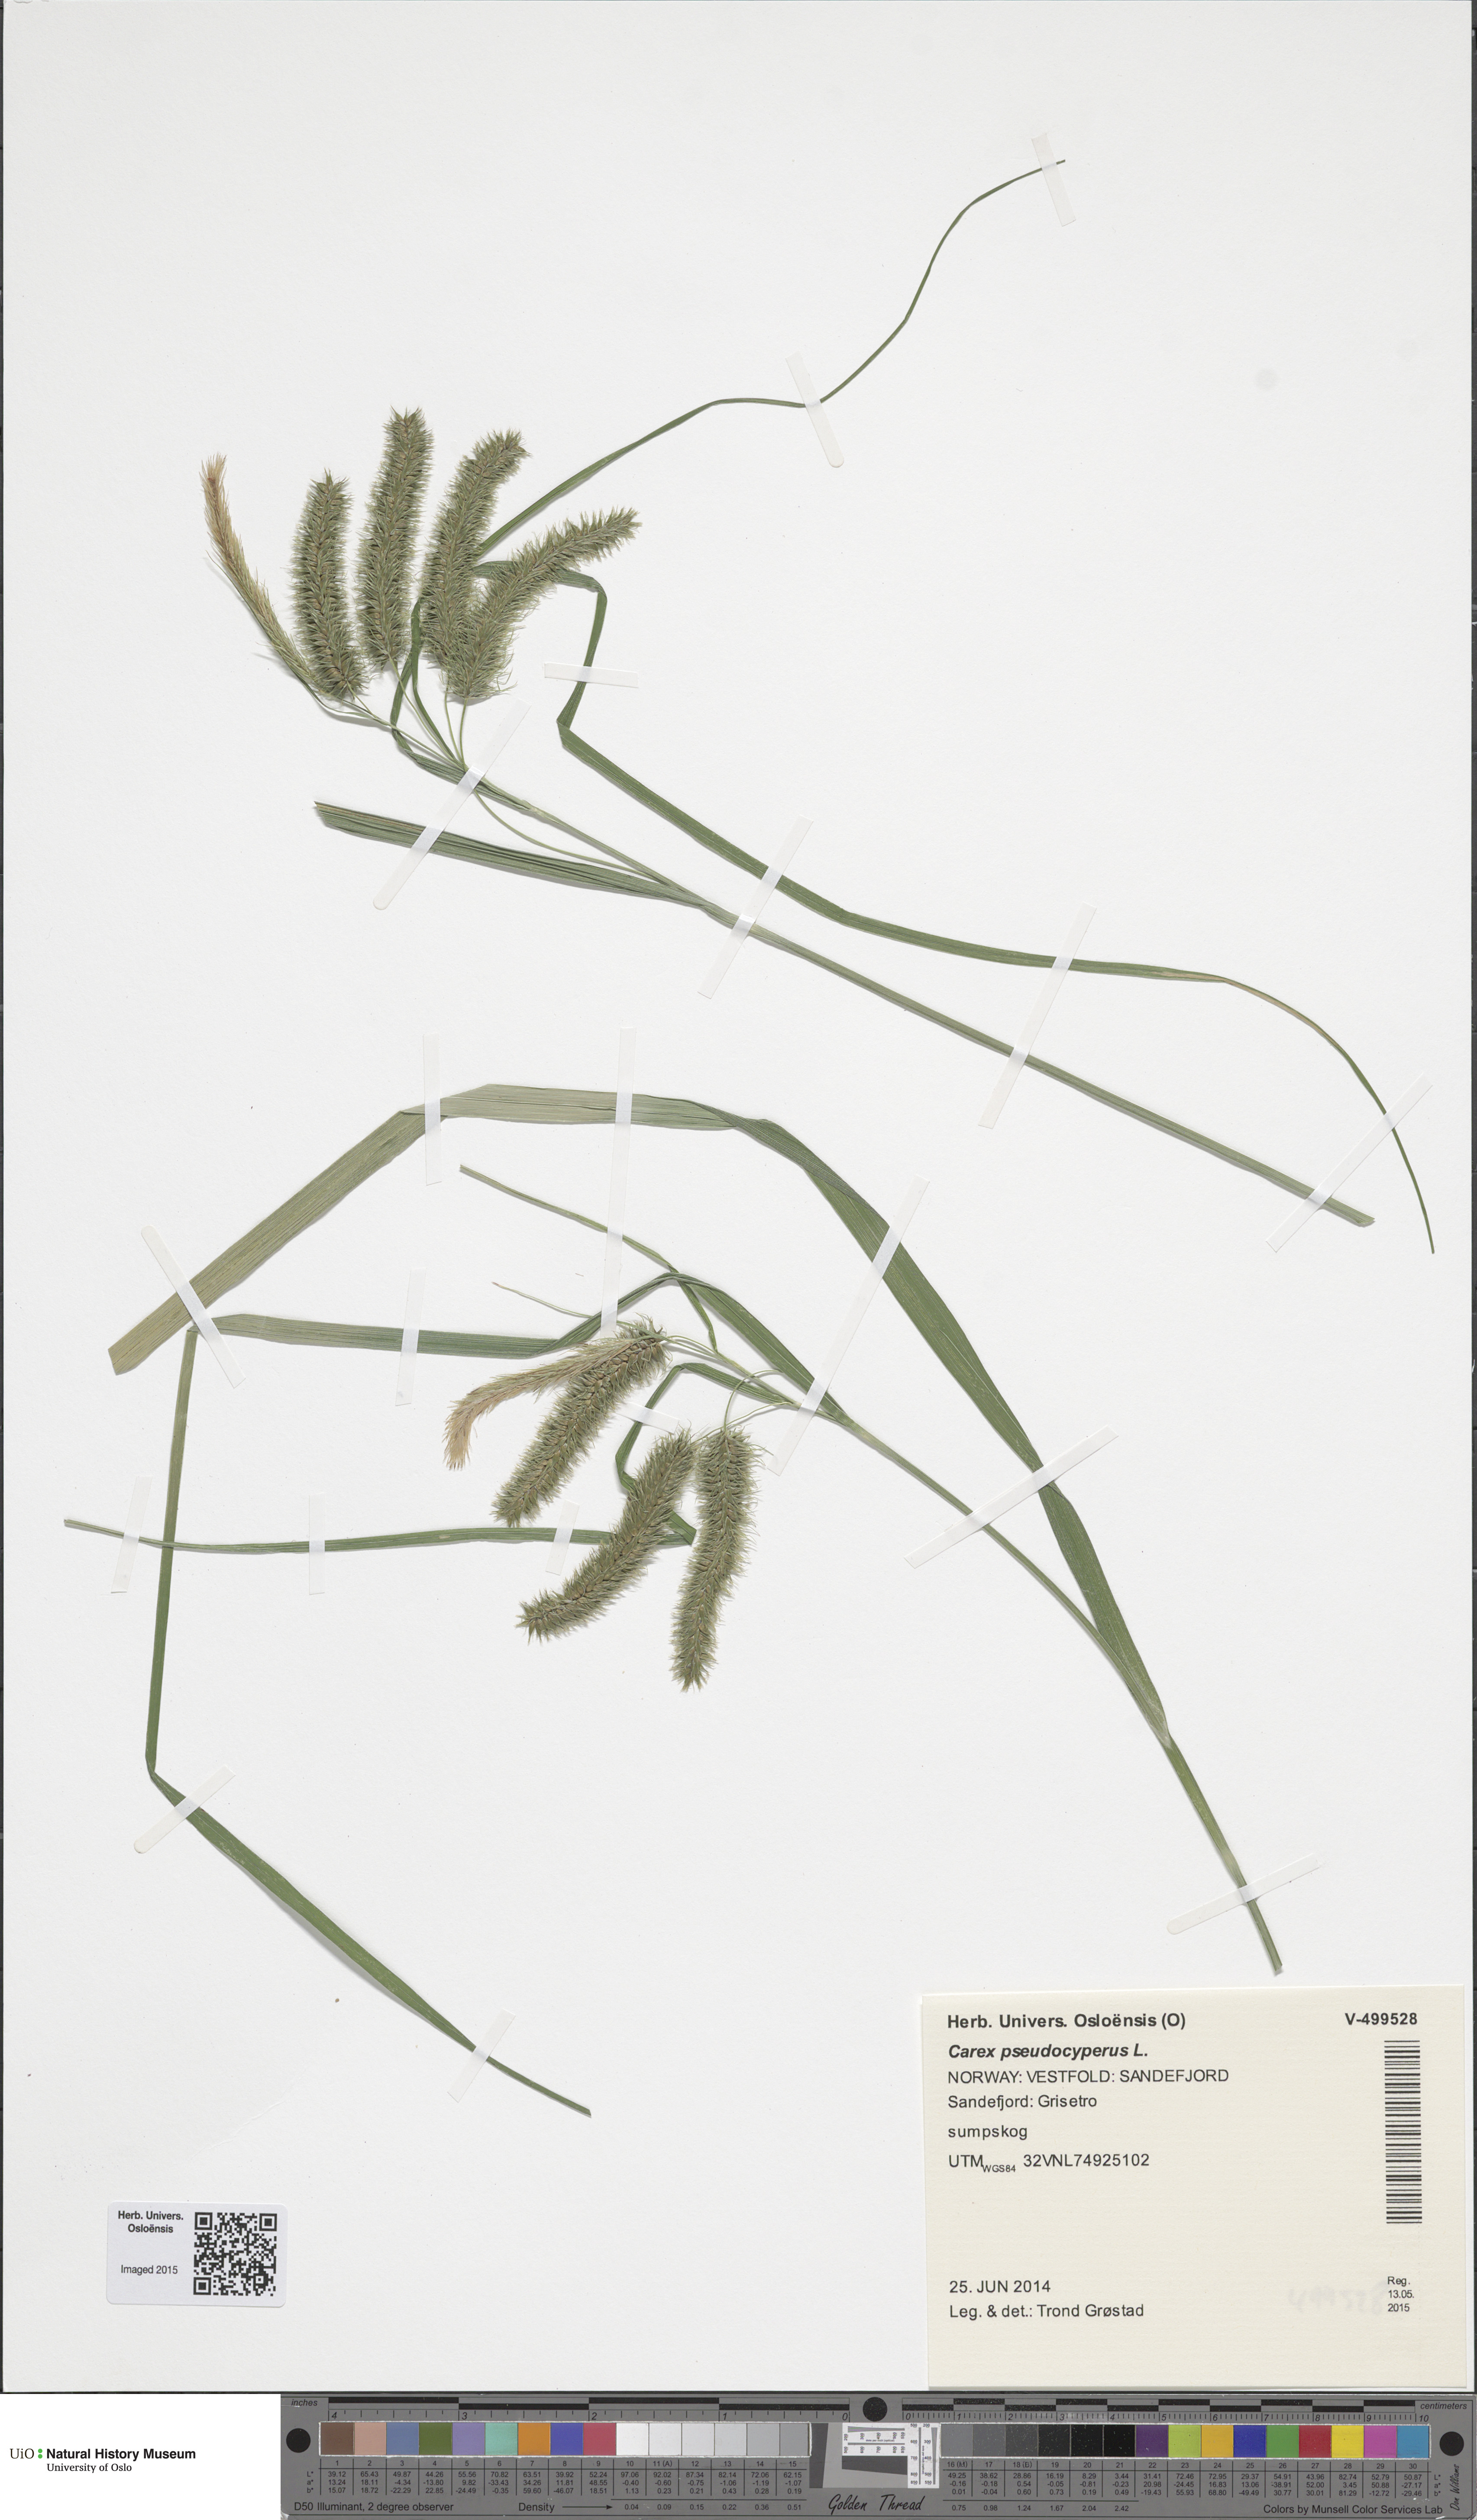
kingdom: Plantae
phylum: Tracheophyta
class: Liliopsida
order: Poales
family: Cyperaceae
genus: Carex
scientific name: Carex pseudocyperus
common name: Cyperus sedge
